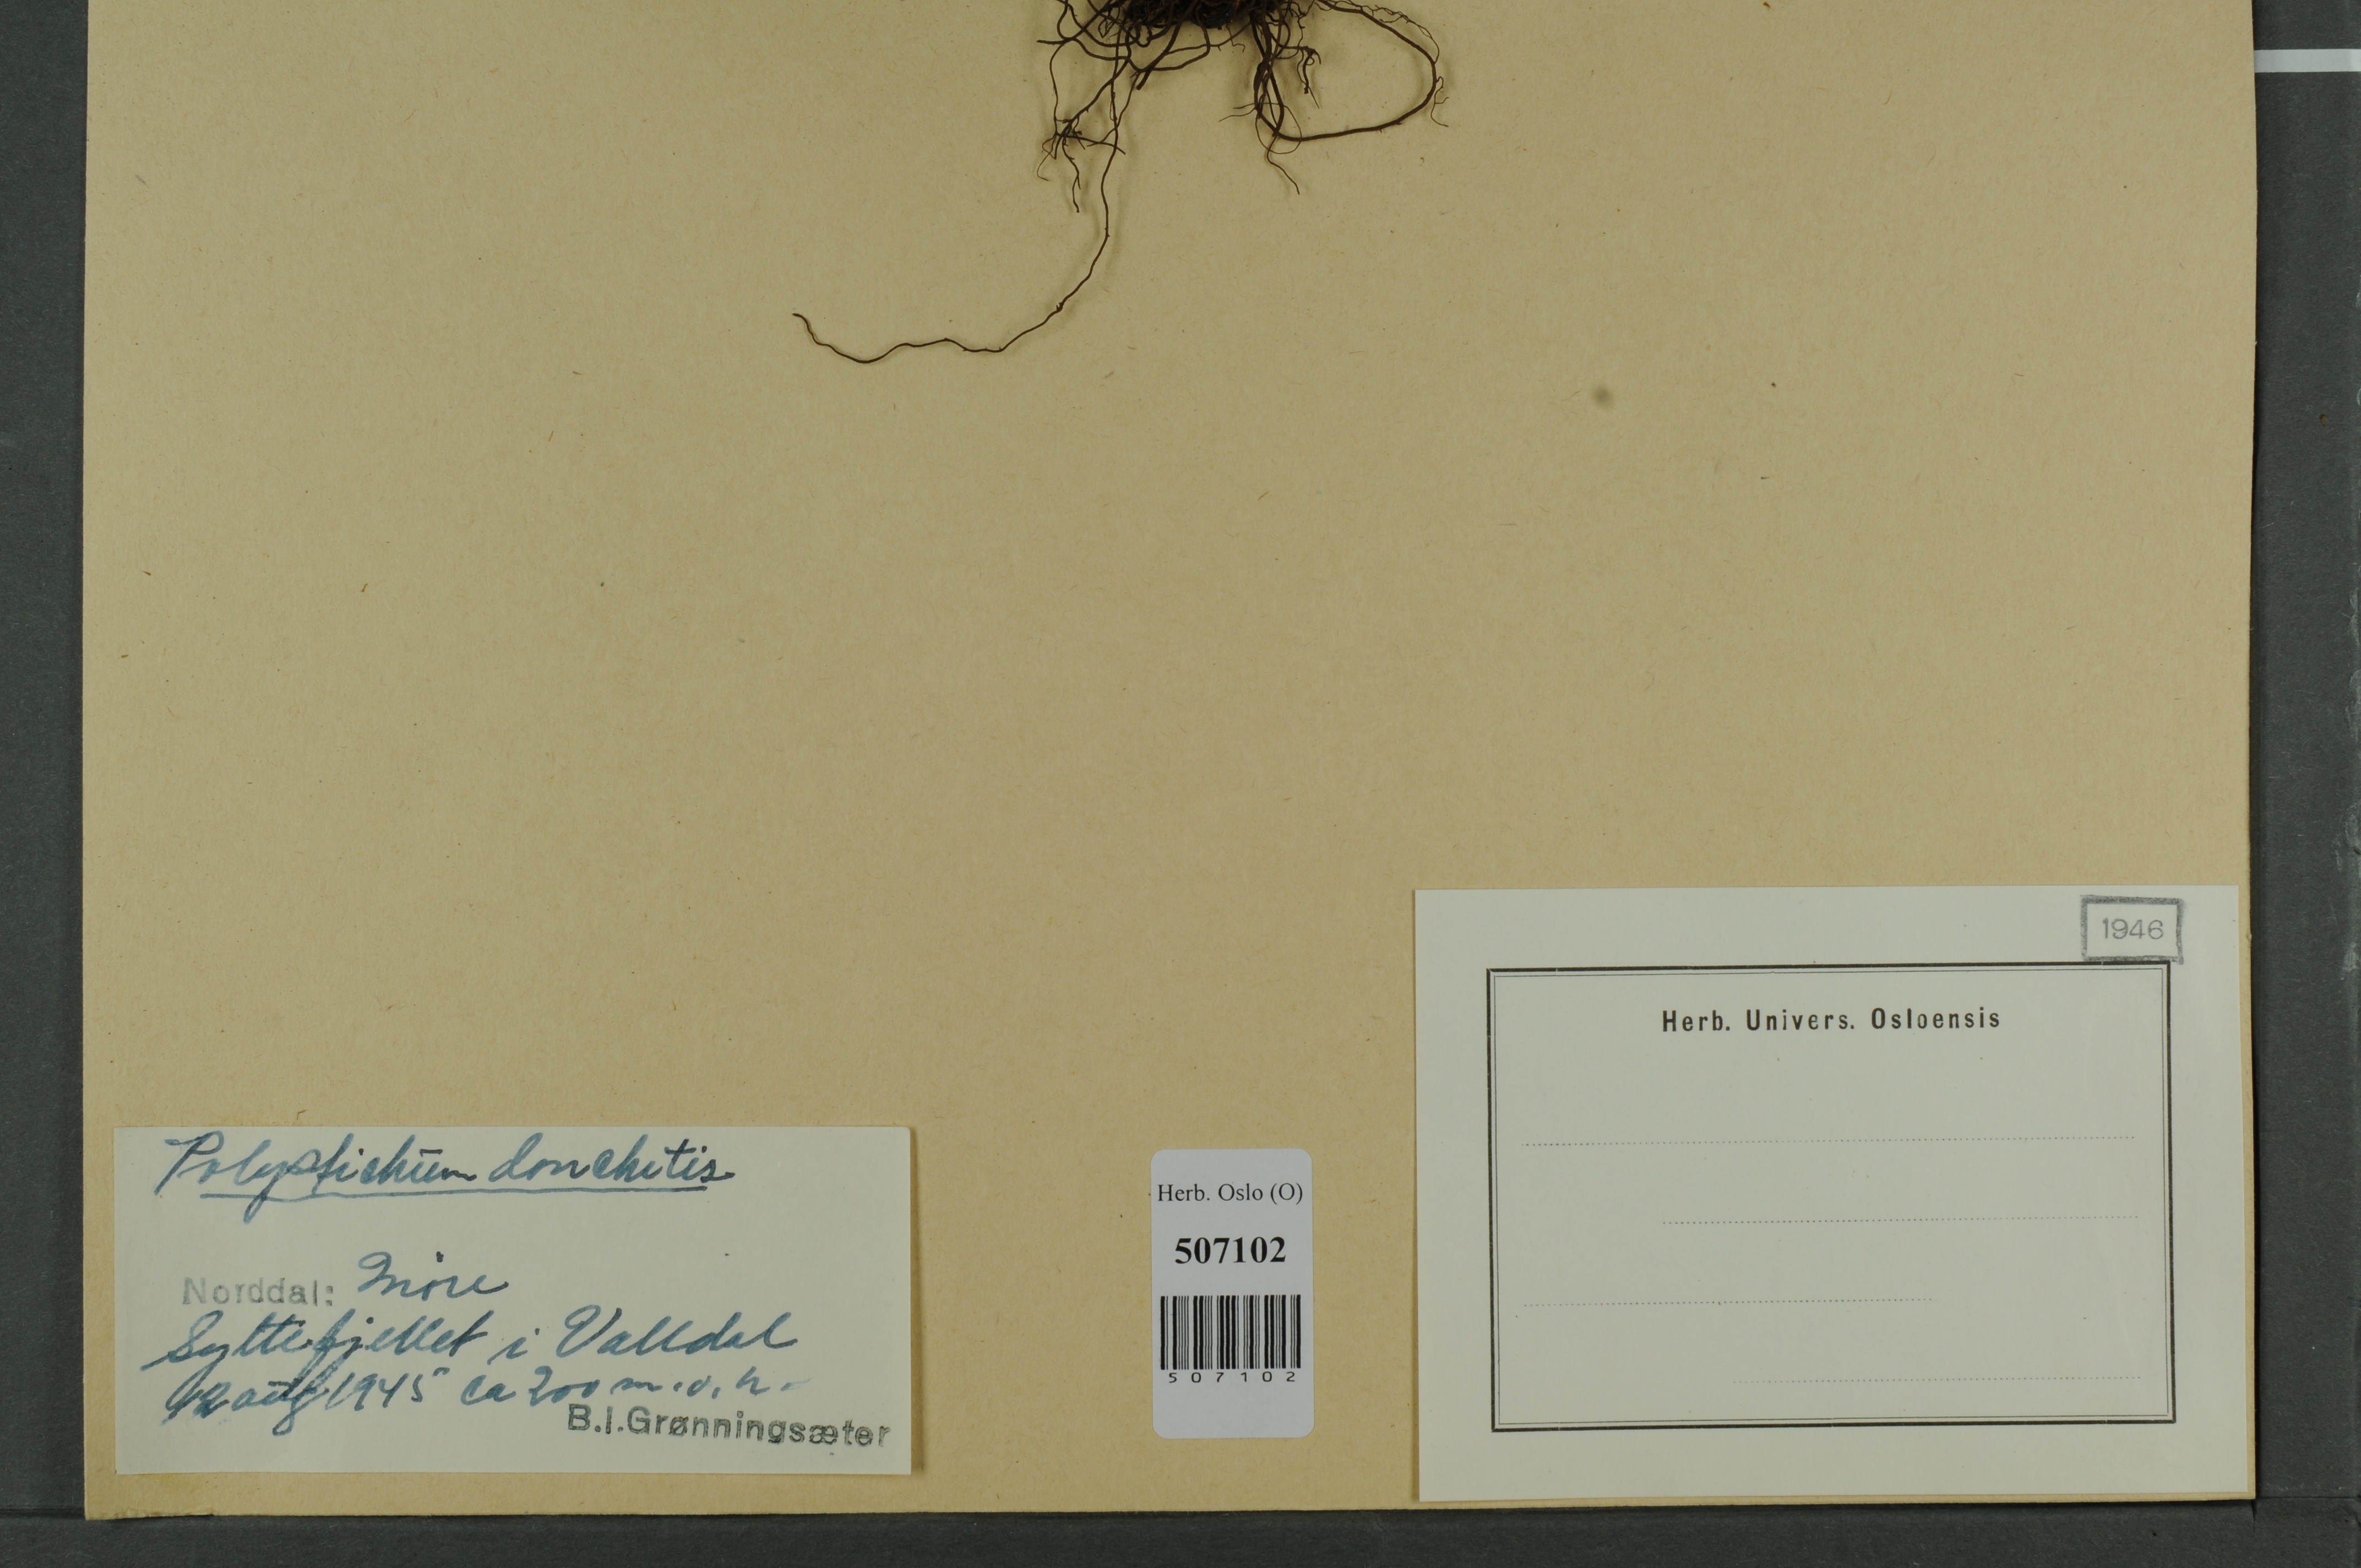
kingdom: Plantae
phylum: Tracheophyta
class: Polypodiopsida
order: Polypodiales
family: Dryopteridaceae
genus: Polystichum
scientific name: Polystichum lonchitis
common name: Holly fern
